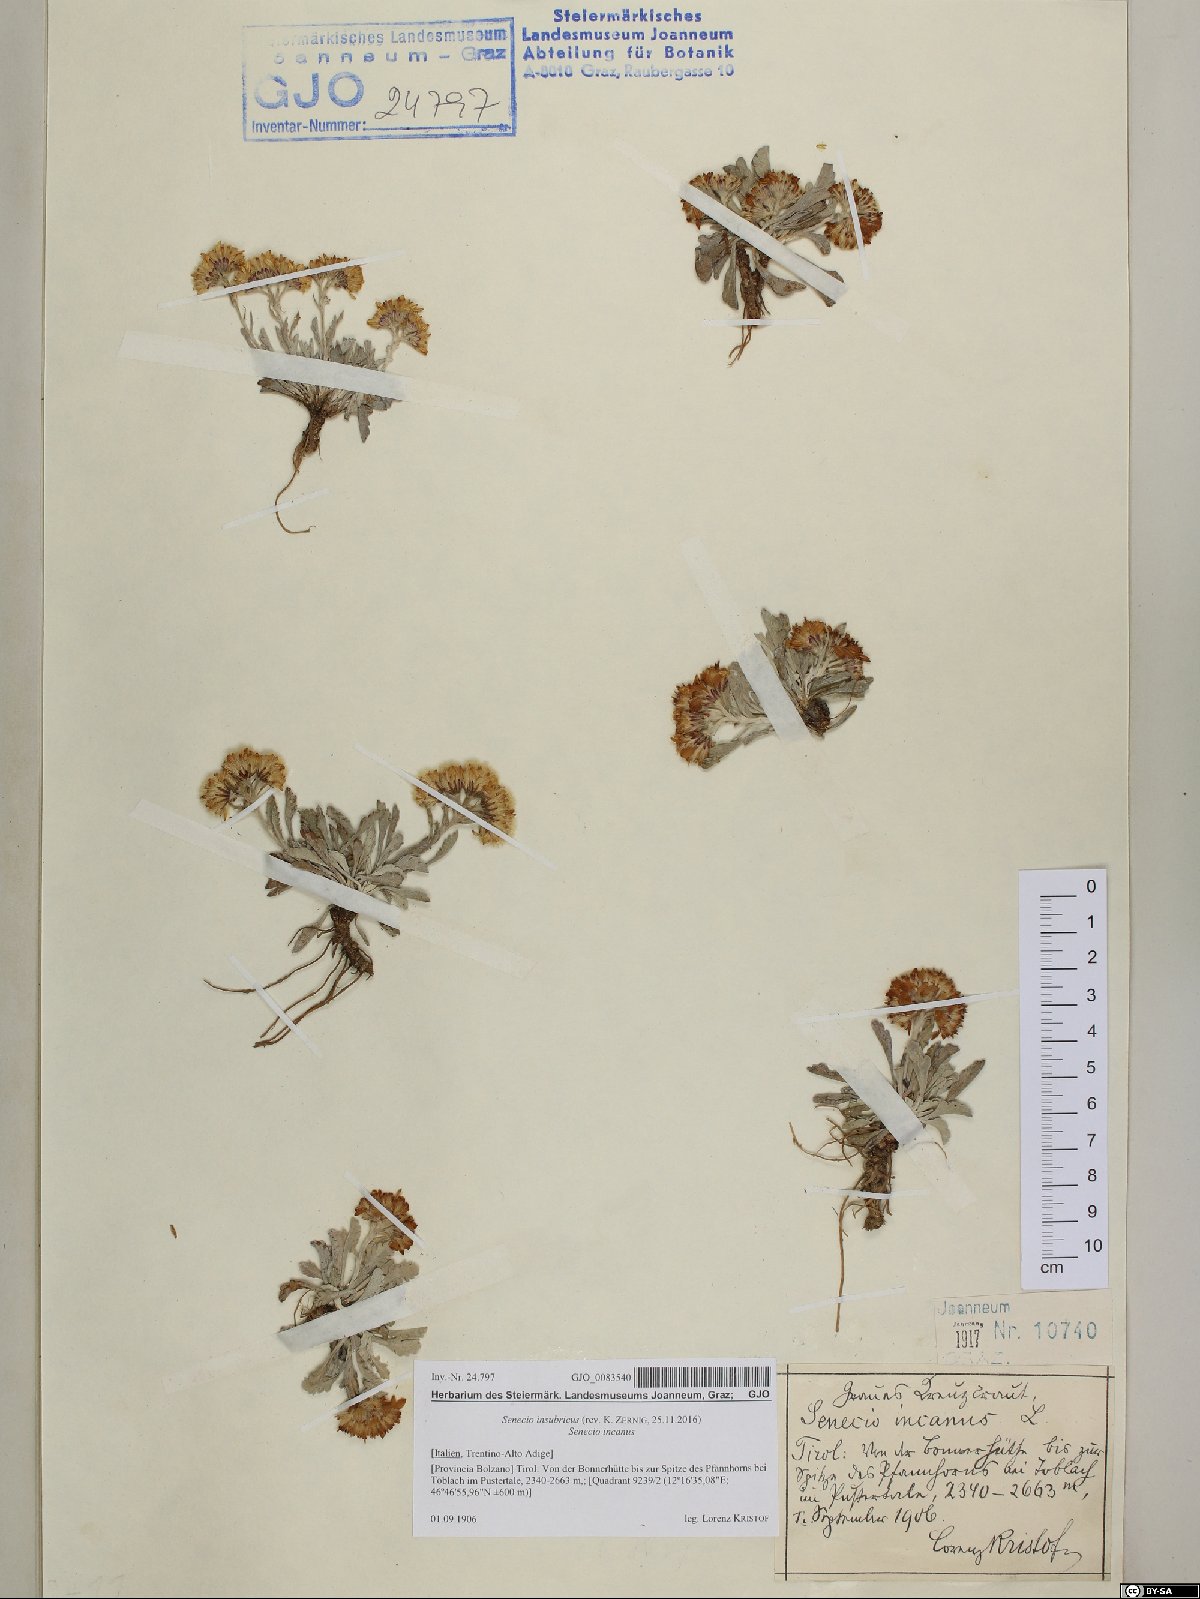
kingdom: Plantae
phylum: Tracheophyta
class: Magnoliopsida
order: Asterales
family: Asteraceae
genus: Jacobaea
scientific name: Jacobaea insubrica
